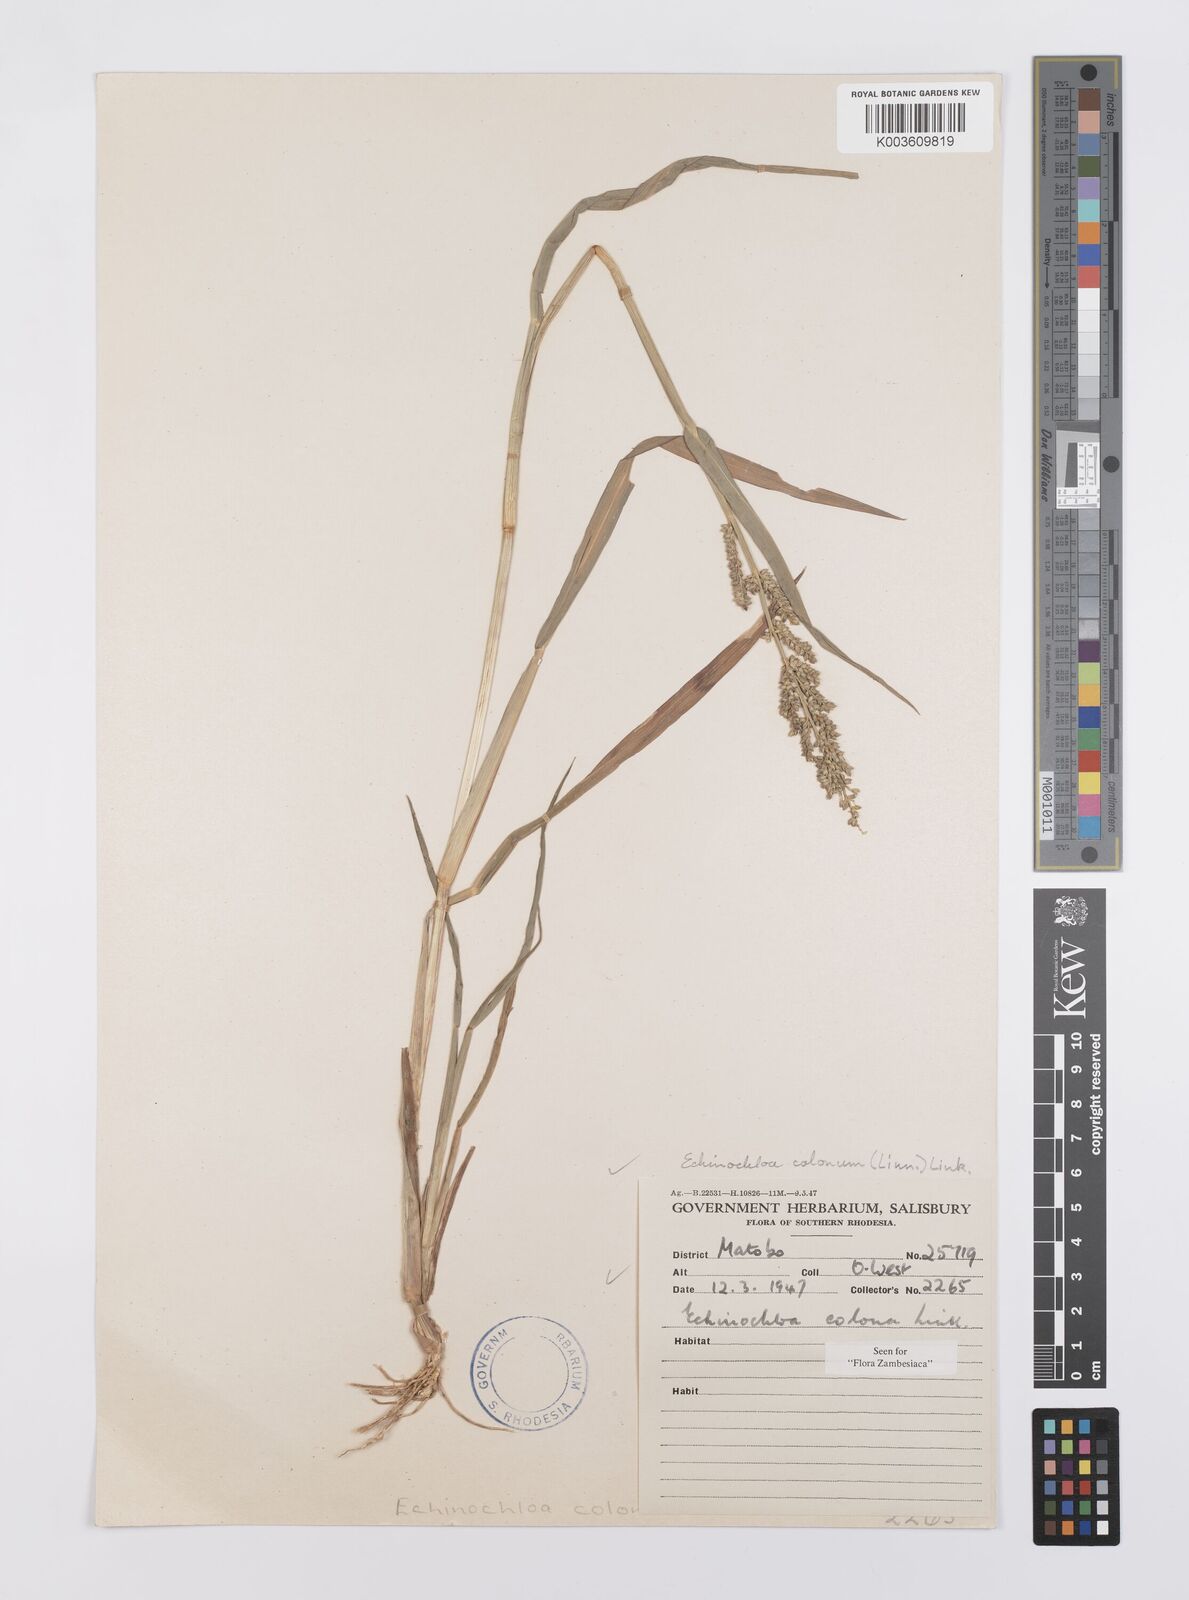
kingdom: Plantae
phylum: Tracheophyta
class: Liliopsida
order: Poales
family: Poaceae
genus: Echinochloa
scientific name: Echinochloa colonum
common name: Jungle rice
